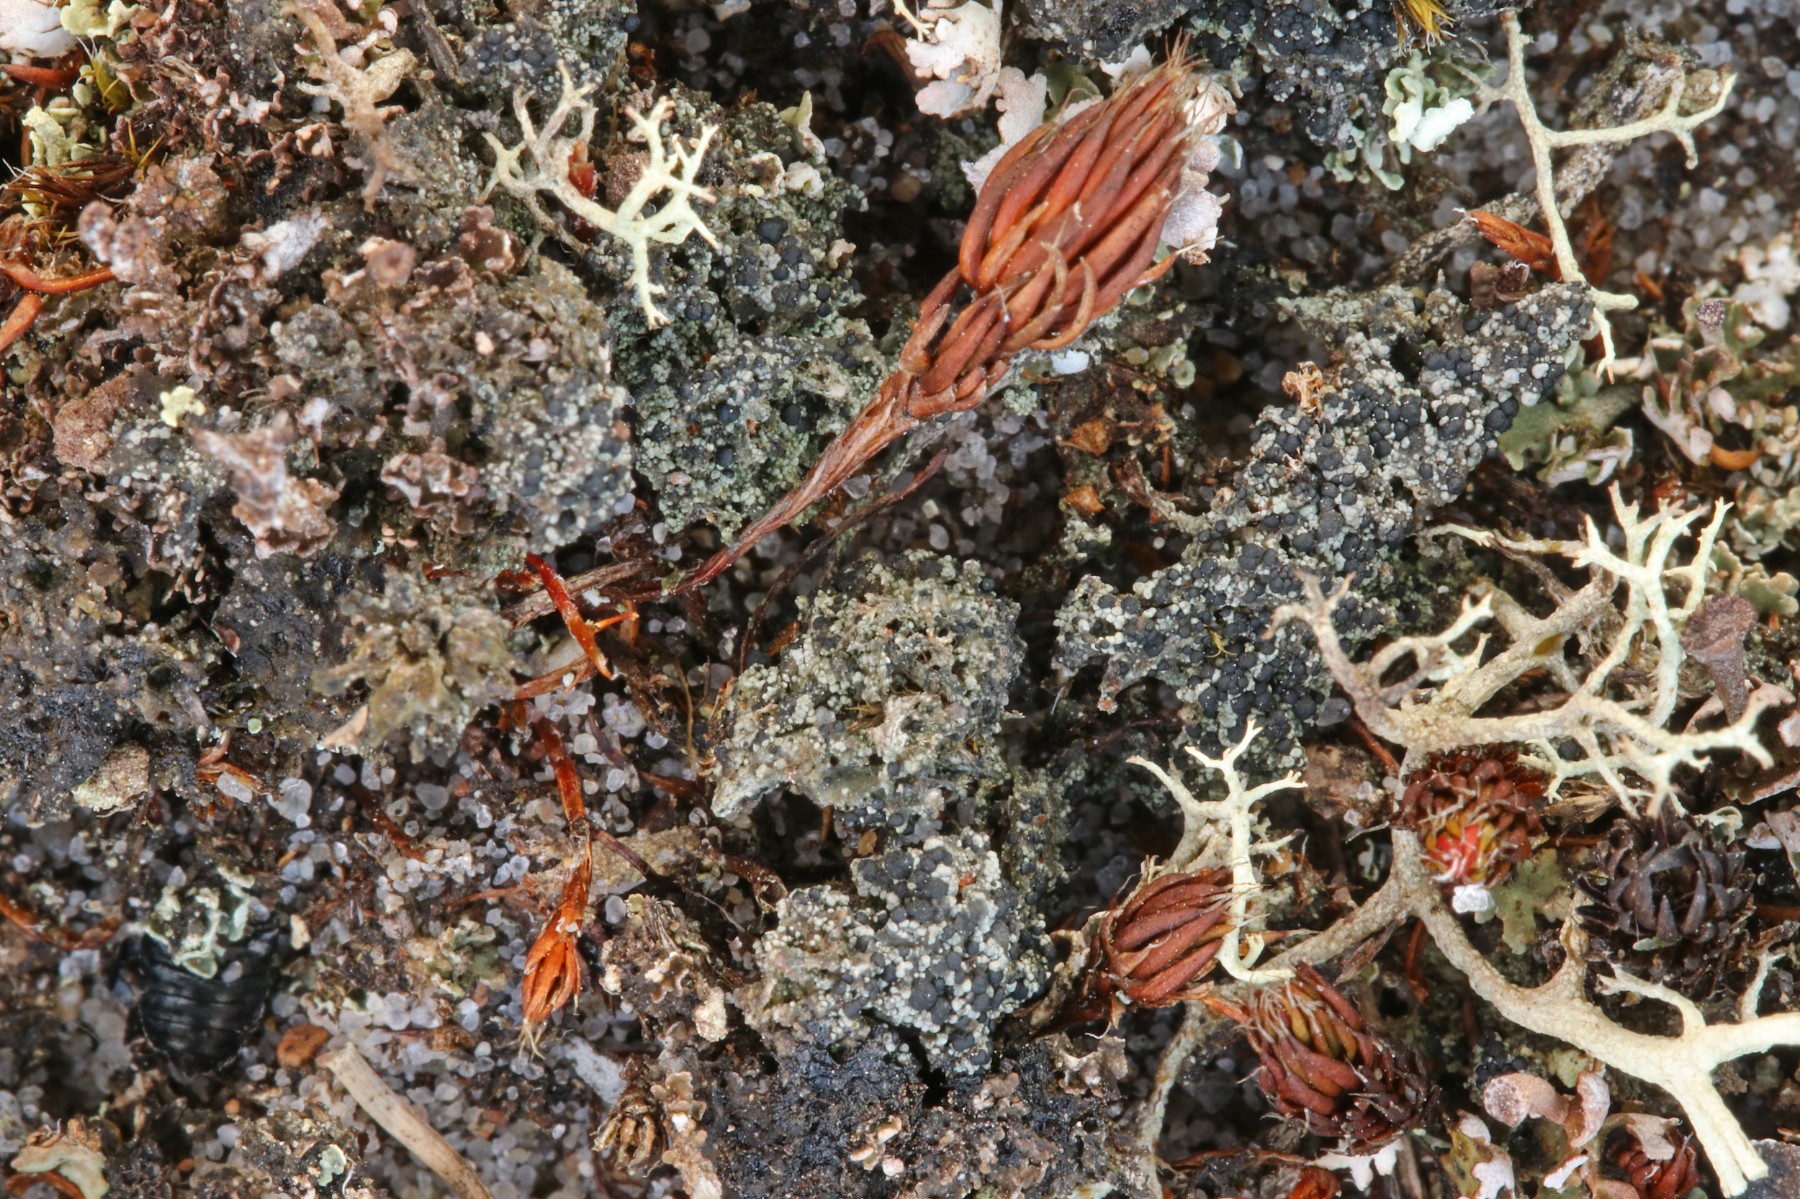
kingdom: Fungi
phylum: Ascomycota
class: Lecanoromycetes
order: Lecanorales
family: Byssolomataceae
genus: Micarea
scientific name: Micarea lignaria
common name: tørve-knaplav
